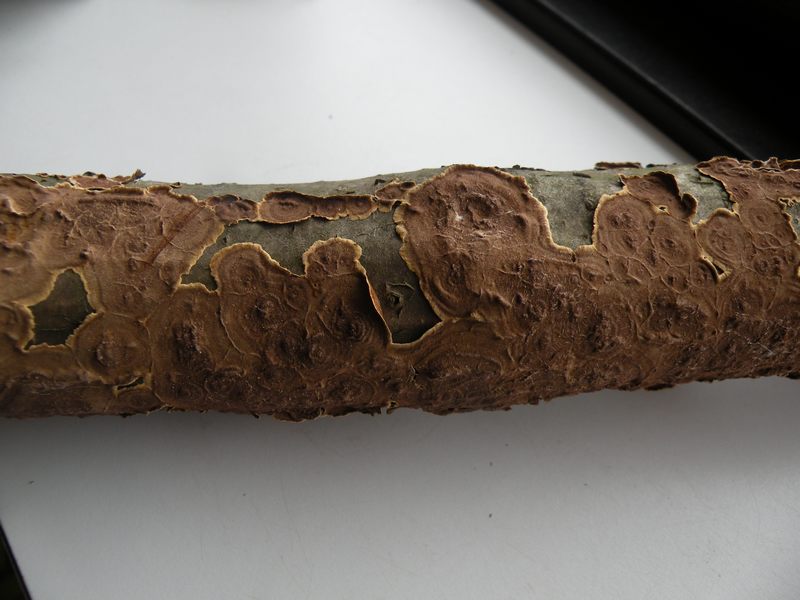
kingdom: Fungi
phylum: Basidiomycota
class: Agaricomycetes
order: Hymenochaetales
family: Hymenochaetaceae
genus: Hydnoporia
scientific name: Hydnoporia tabacina
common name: tobaksbrun ruslædersvamp
